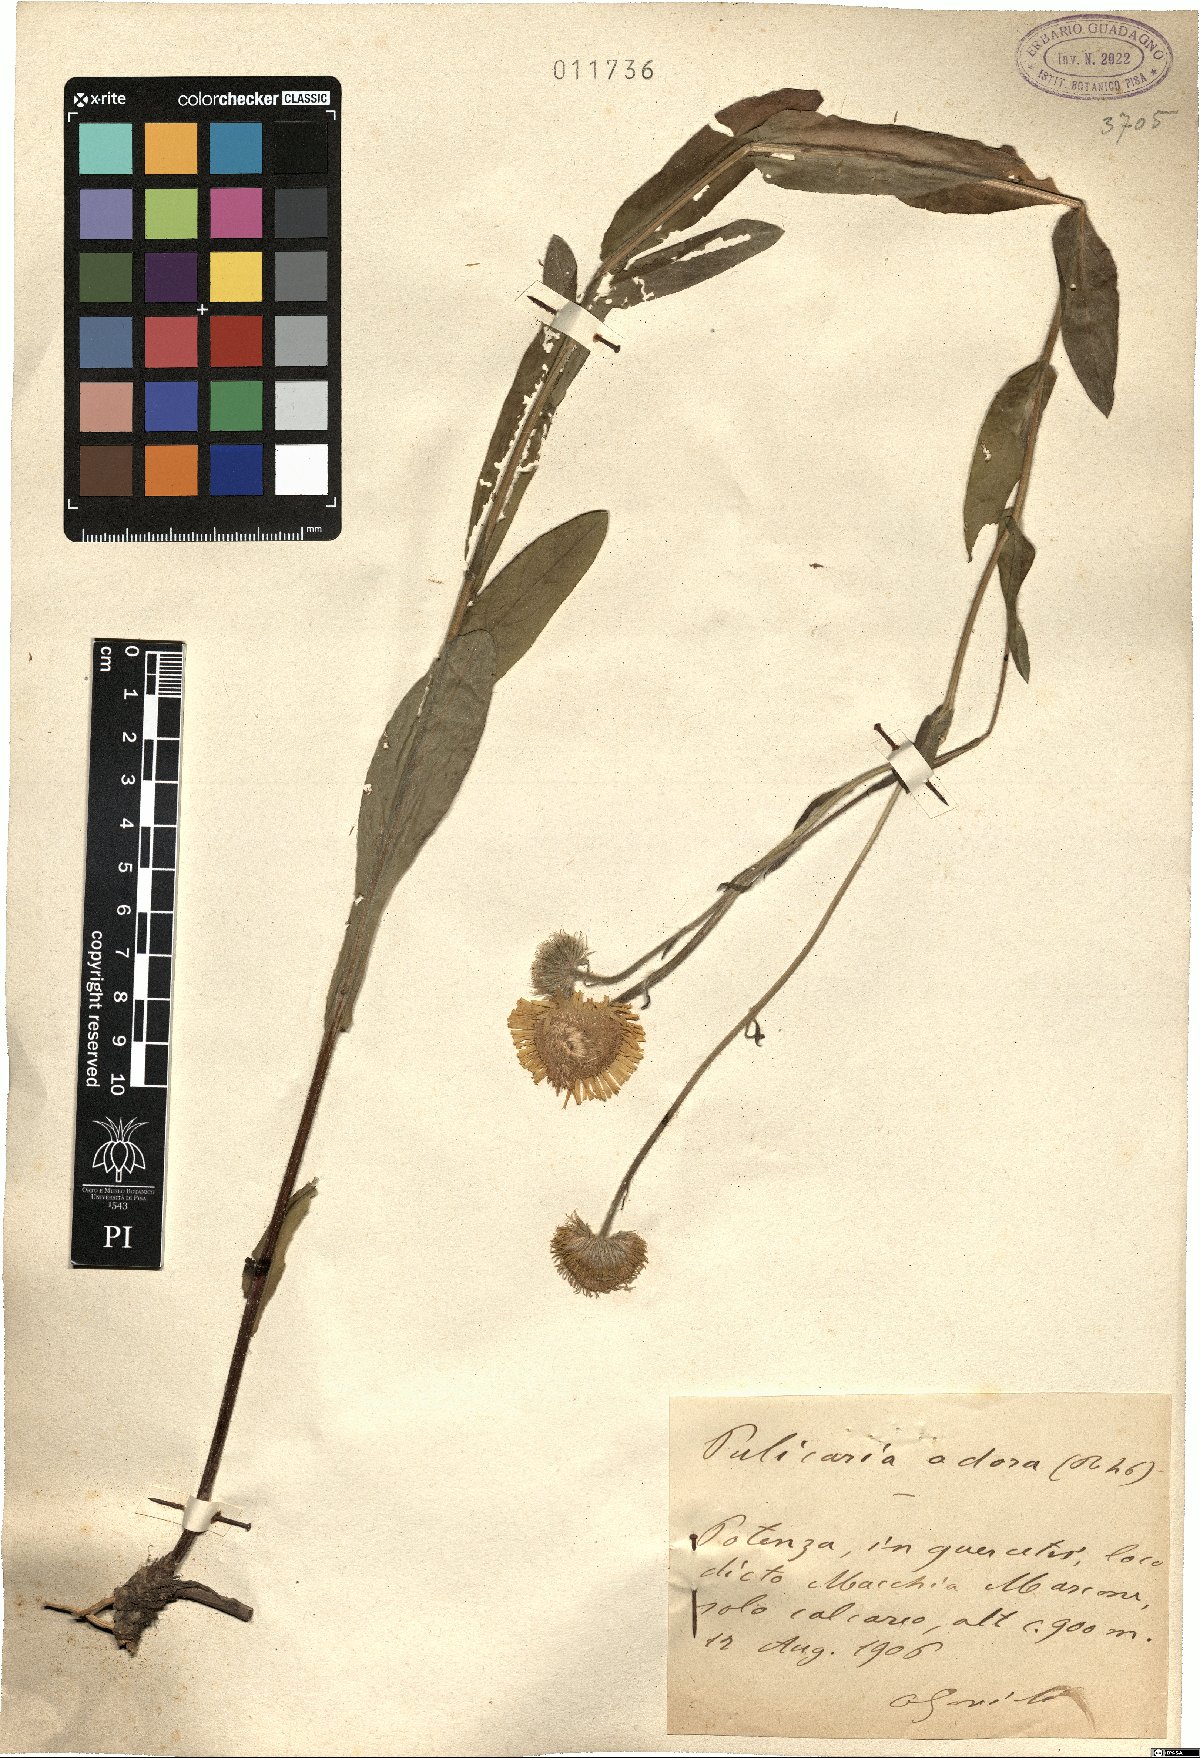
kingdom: Plantae
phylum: Tracheophyta
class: Magnoliopsida
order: Asterales
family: Asteraceae
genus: Pulicaria
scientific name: Pulicaria odora
